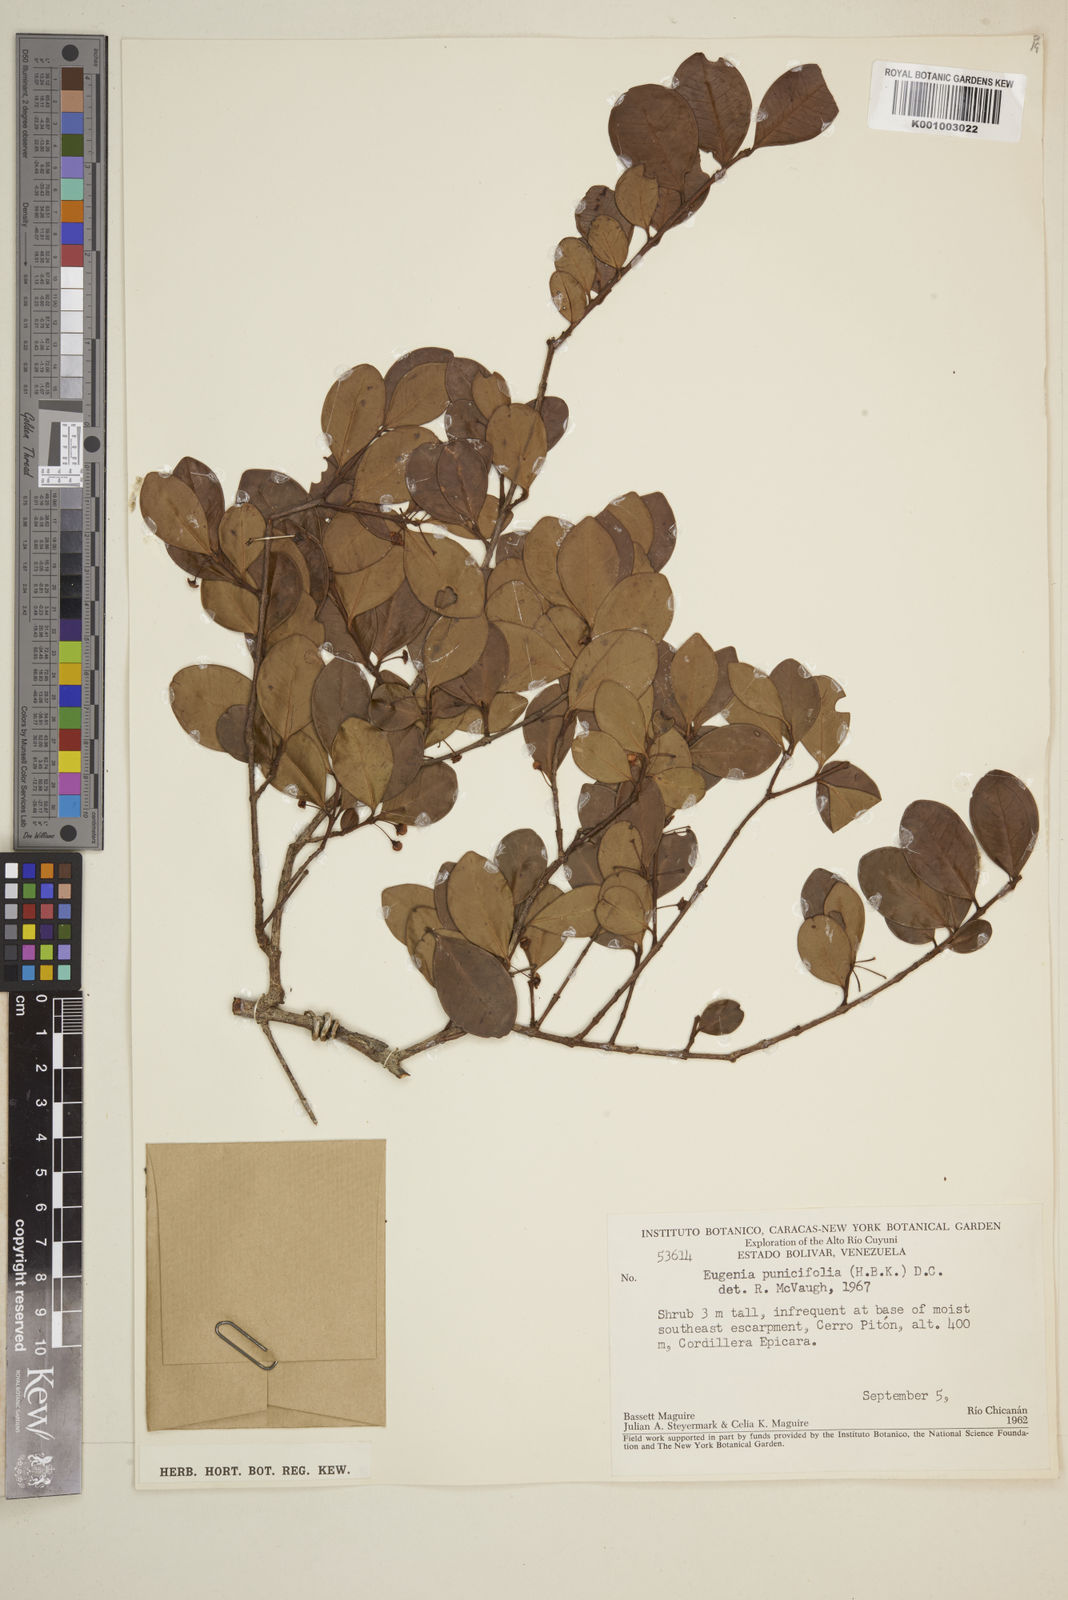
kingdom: Plantae
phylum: Tracheophyta
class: Magnoliopsida
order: Myrtales
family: Myrtaceae
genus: Eugenia
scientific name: Eugenia punicifolia
